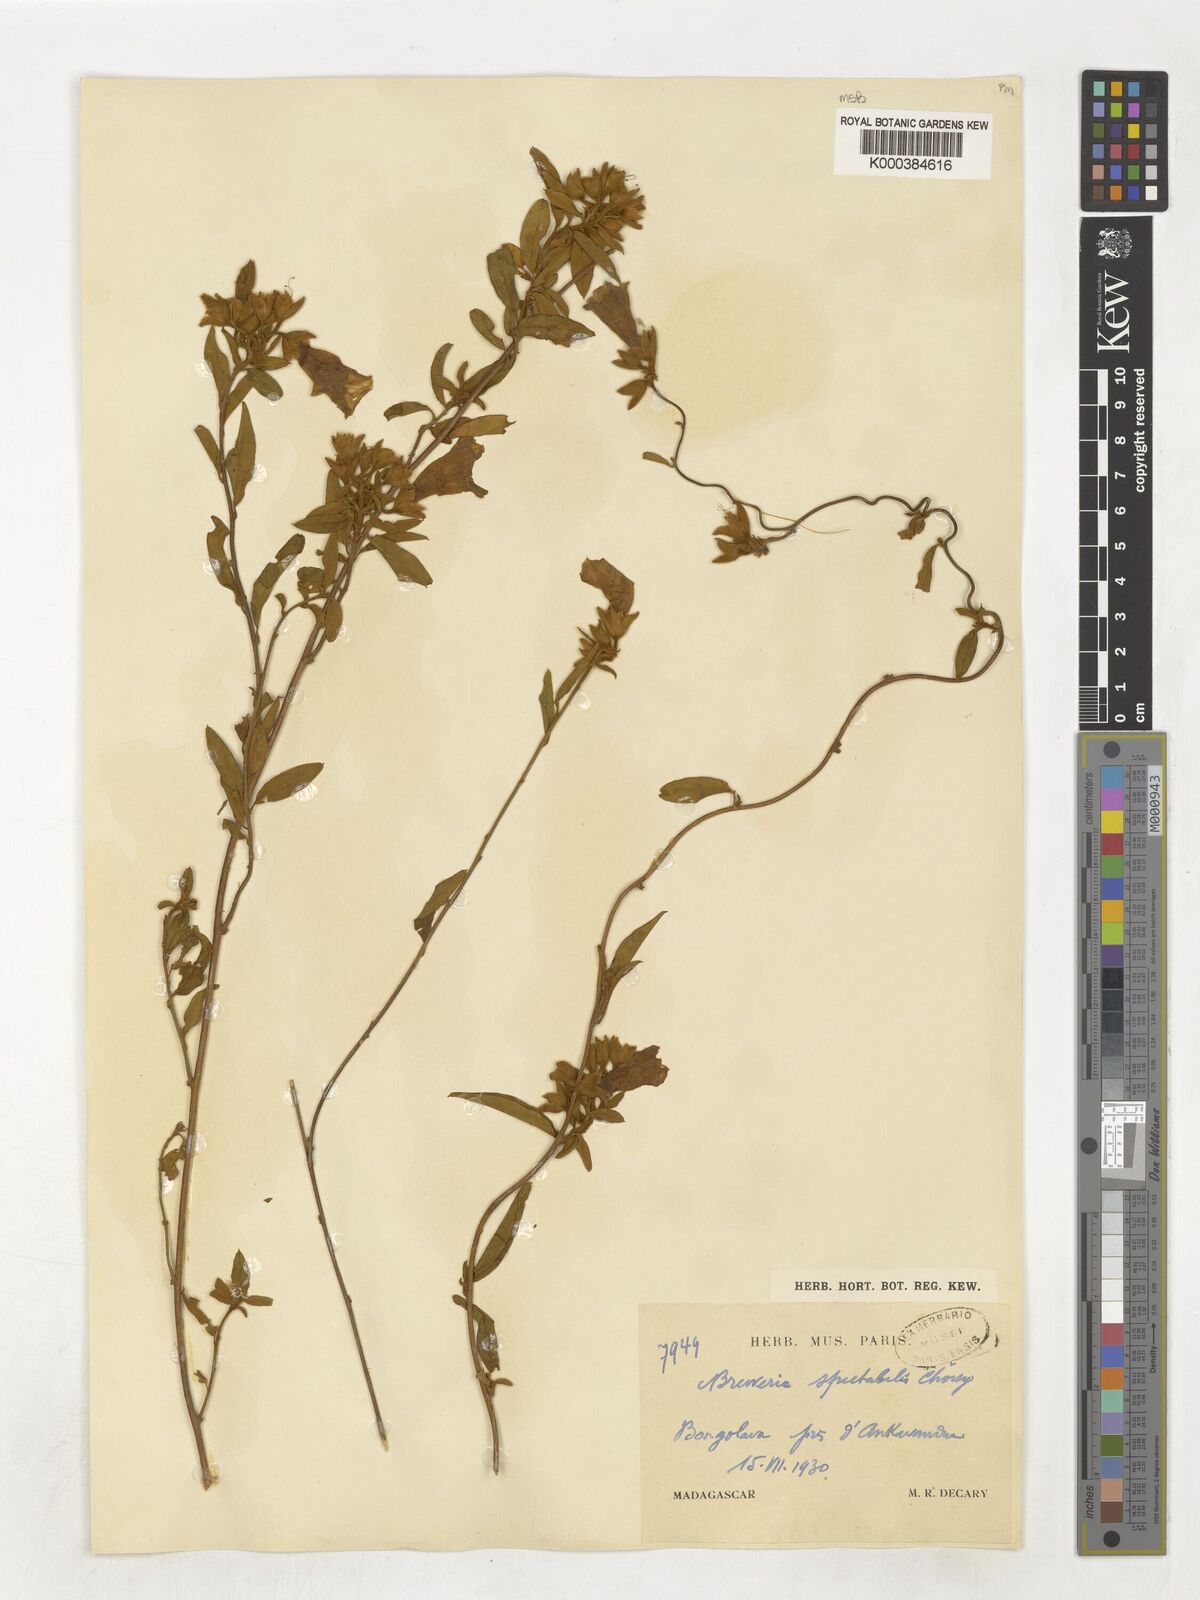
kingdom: Plantae
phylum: Tracheophyta
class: Magnoliopsida
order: Solanales
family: Convolvulaceae
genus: Bonamia
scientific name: Bonamia spectabilis
